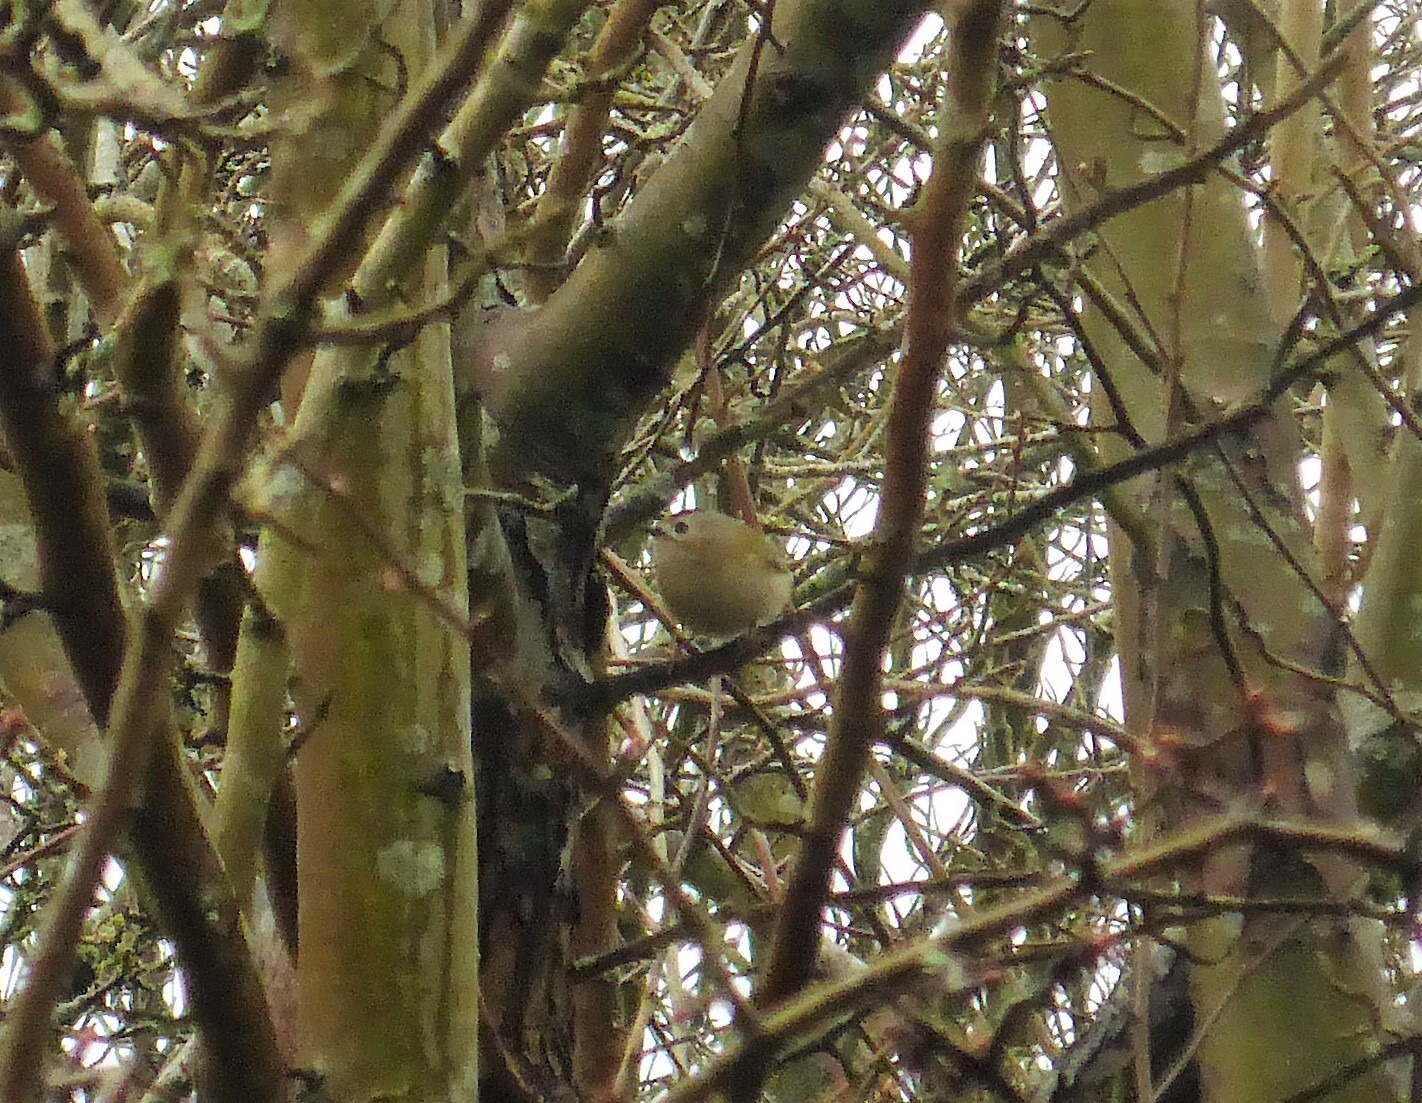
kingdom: Animalia
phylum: Chordata
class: Aves
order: Passeriformes
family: Regulidae
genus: Regulus
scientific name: Regulus regulus
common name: Fuglekonge
